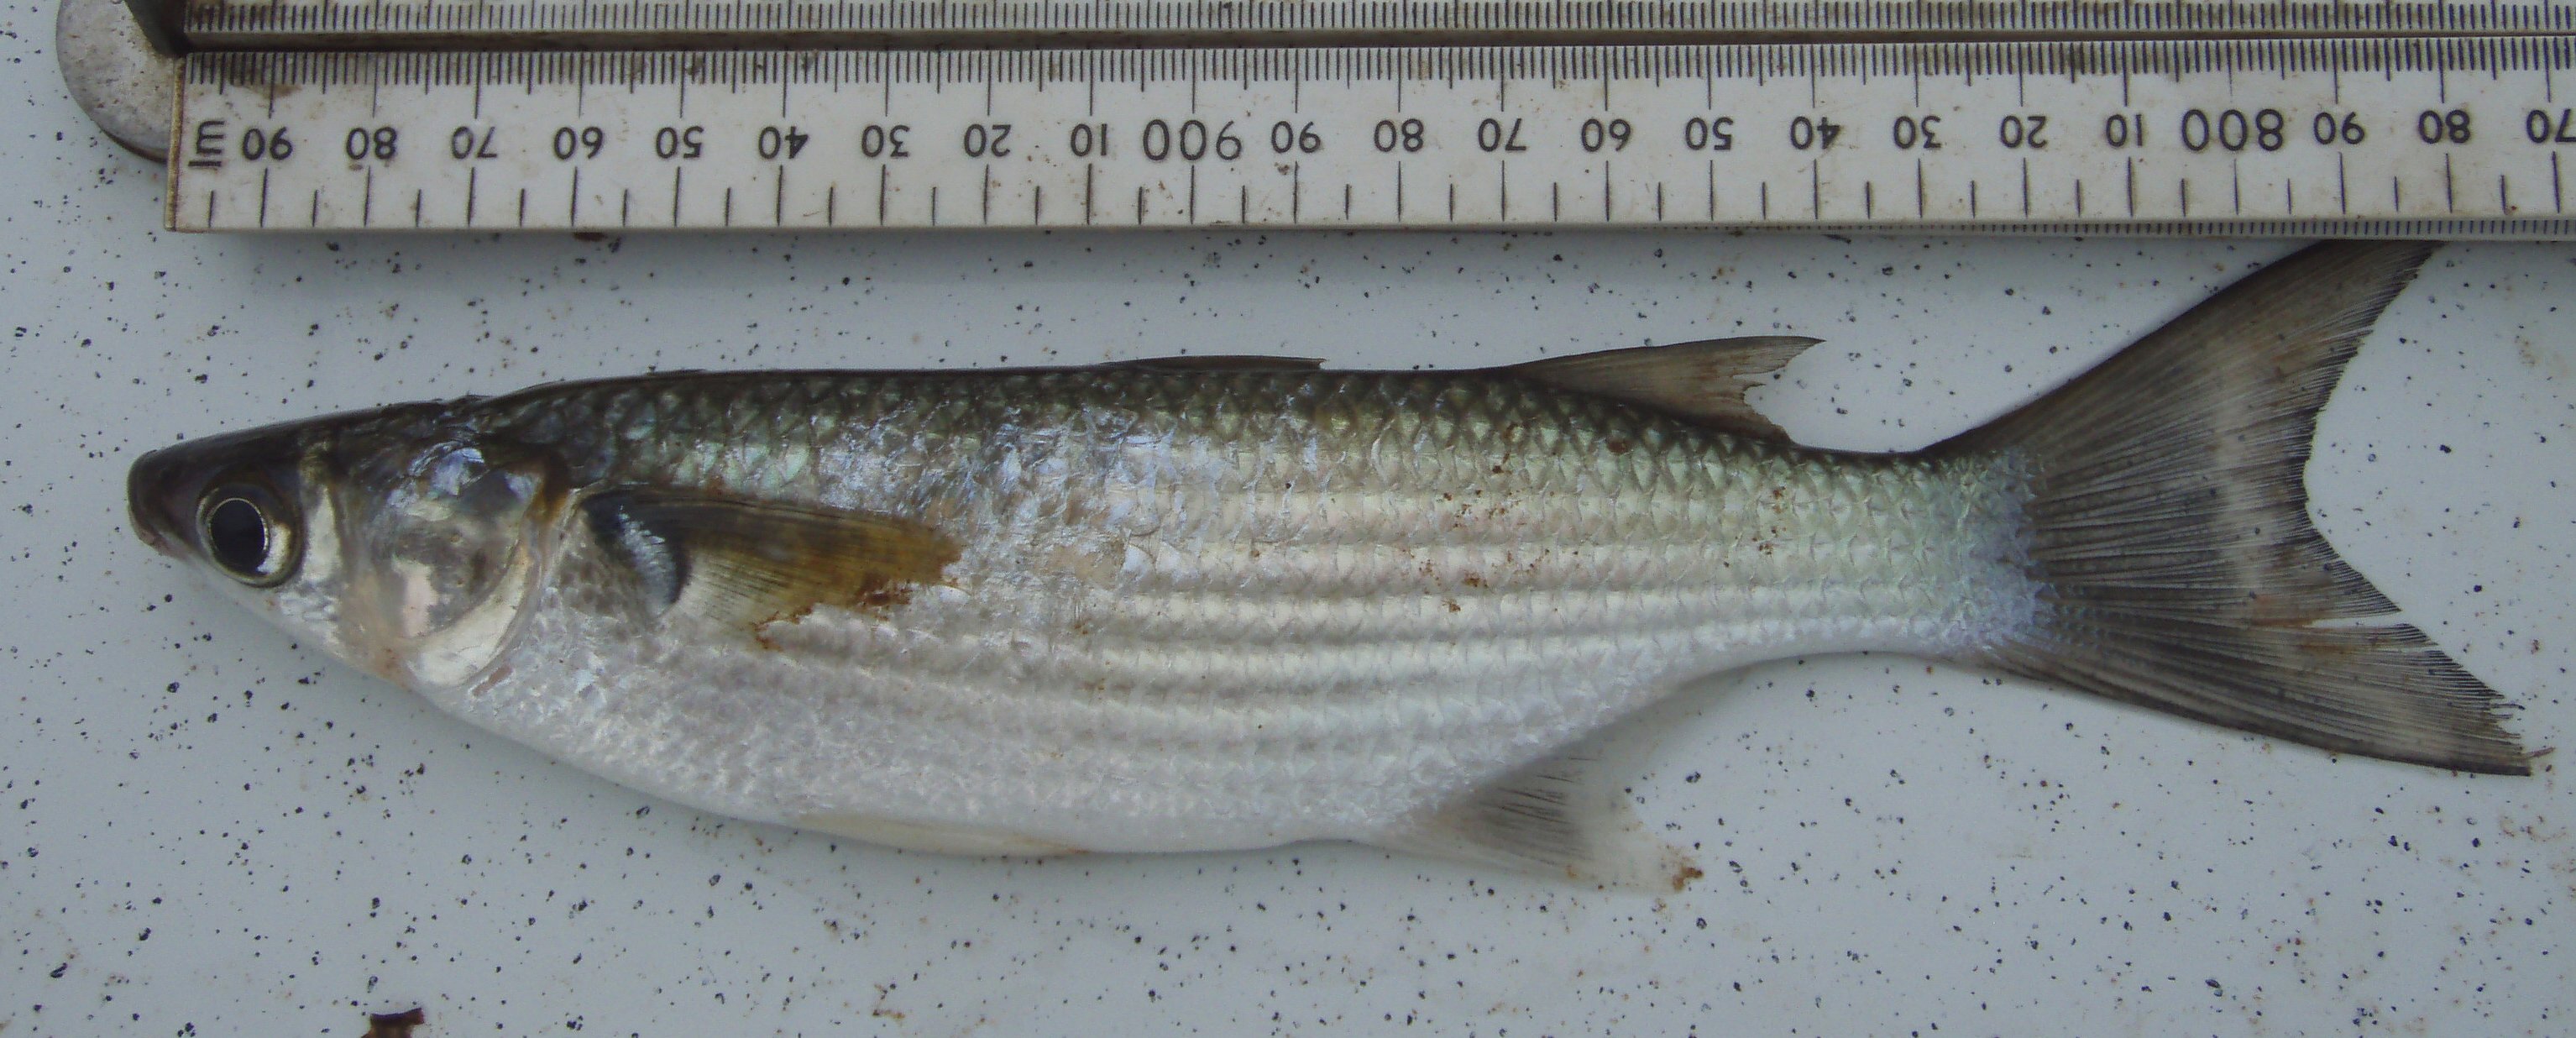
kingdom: Animalia
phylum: Chordata
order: Mugiliformes
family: Mugilidae
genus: Liza
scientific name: Liza
